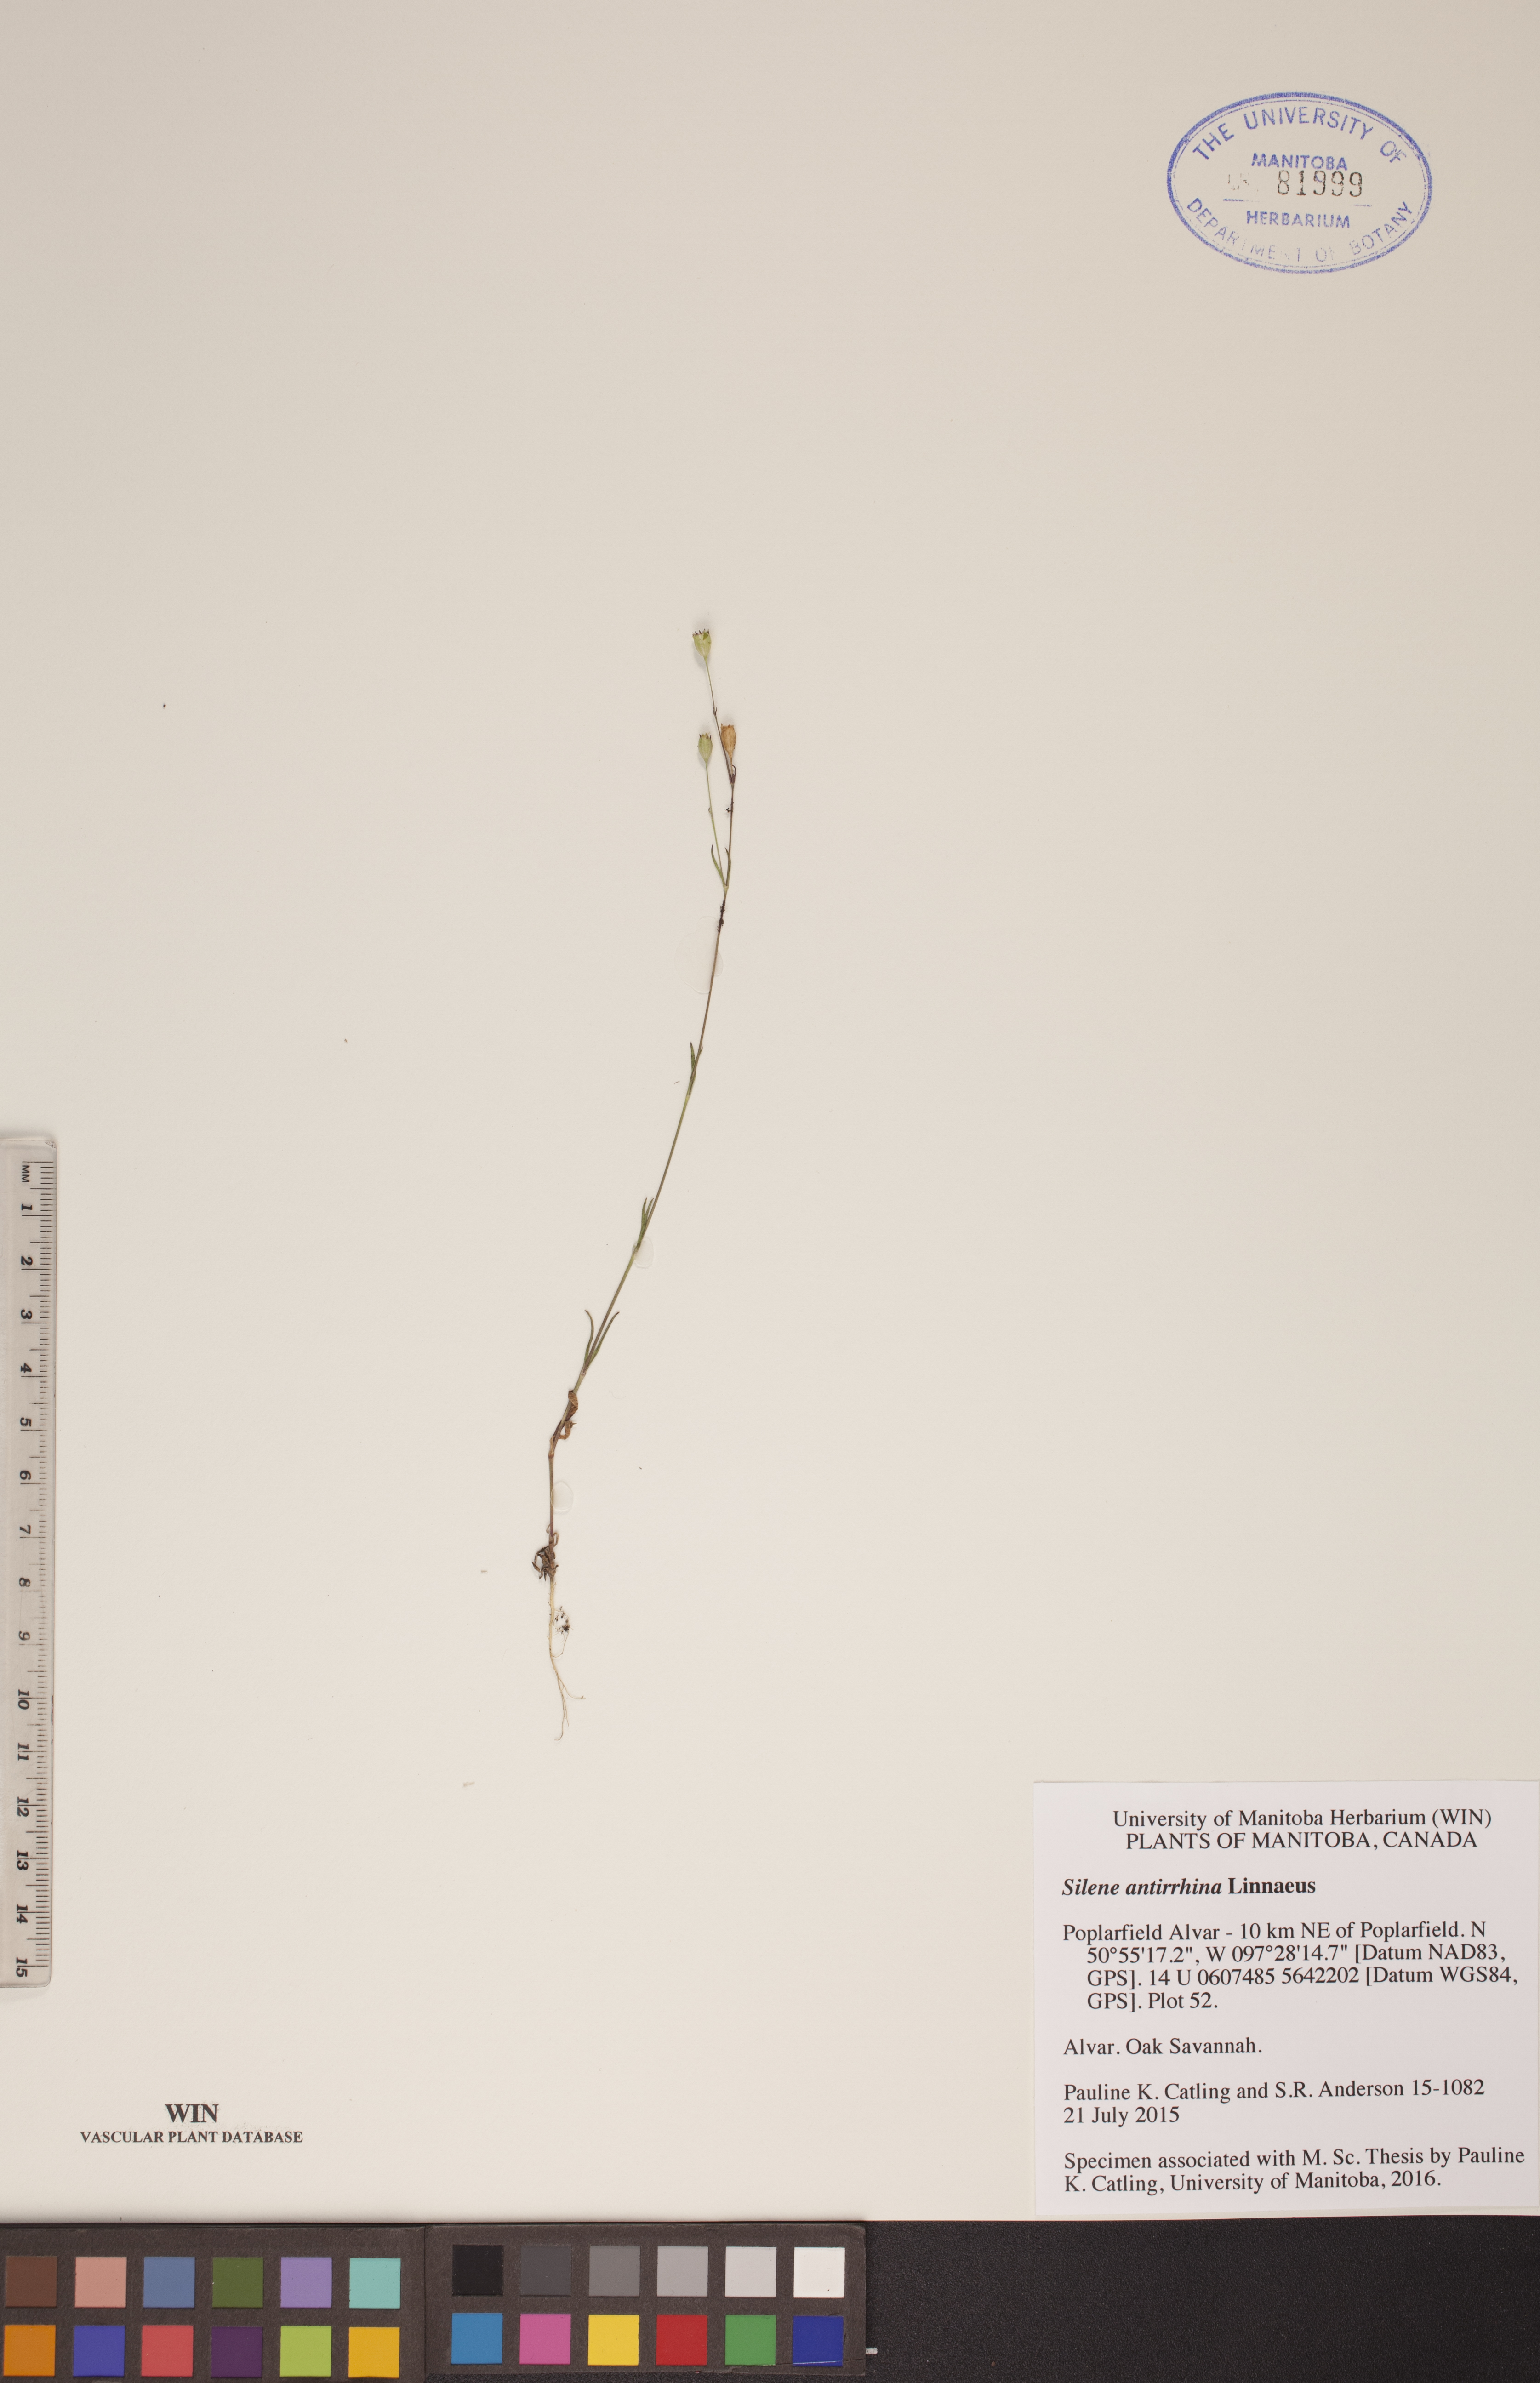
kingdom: Plantae
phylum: Tracheophyta
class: Magnoliopsida
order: Caryophyllales
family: Caryophyllaceae
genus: Silene
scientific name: Silene antirrhina
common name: Sleepy catchfly
